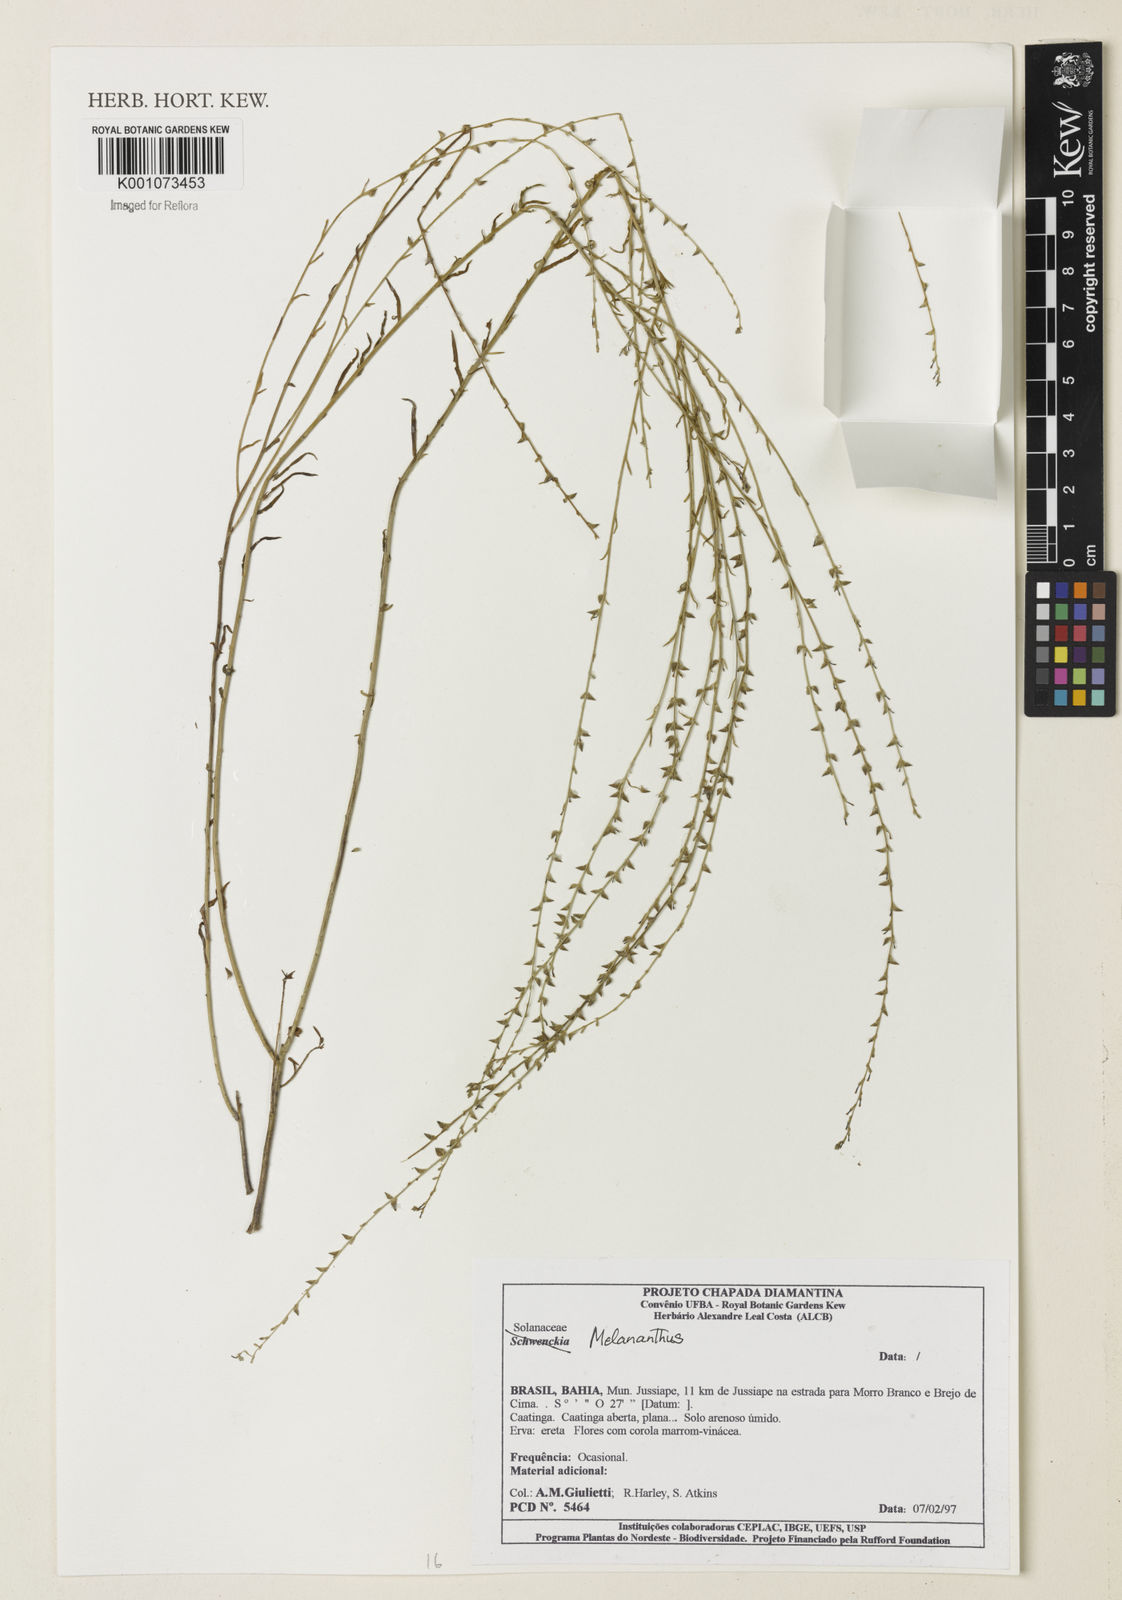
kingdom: Plantae
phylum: Tracheophyta
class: Magnoliopsida
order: Solanales
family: Solanaceae
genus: Melananthus
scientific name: Melananthus guatemalensis
